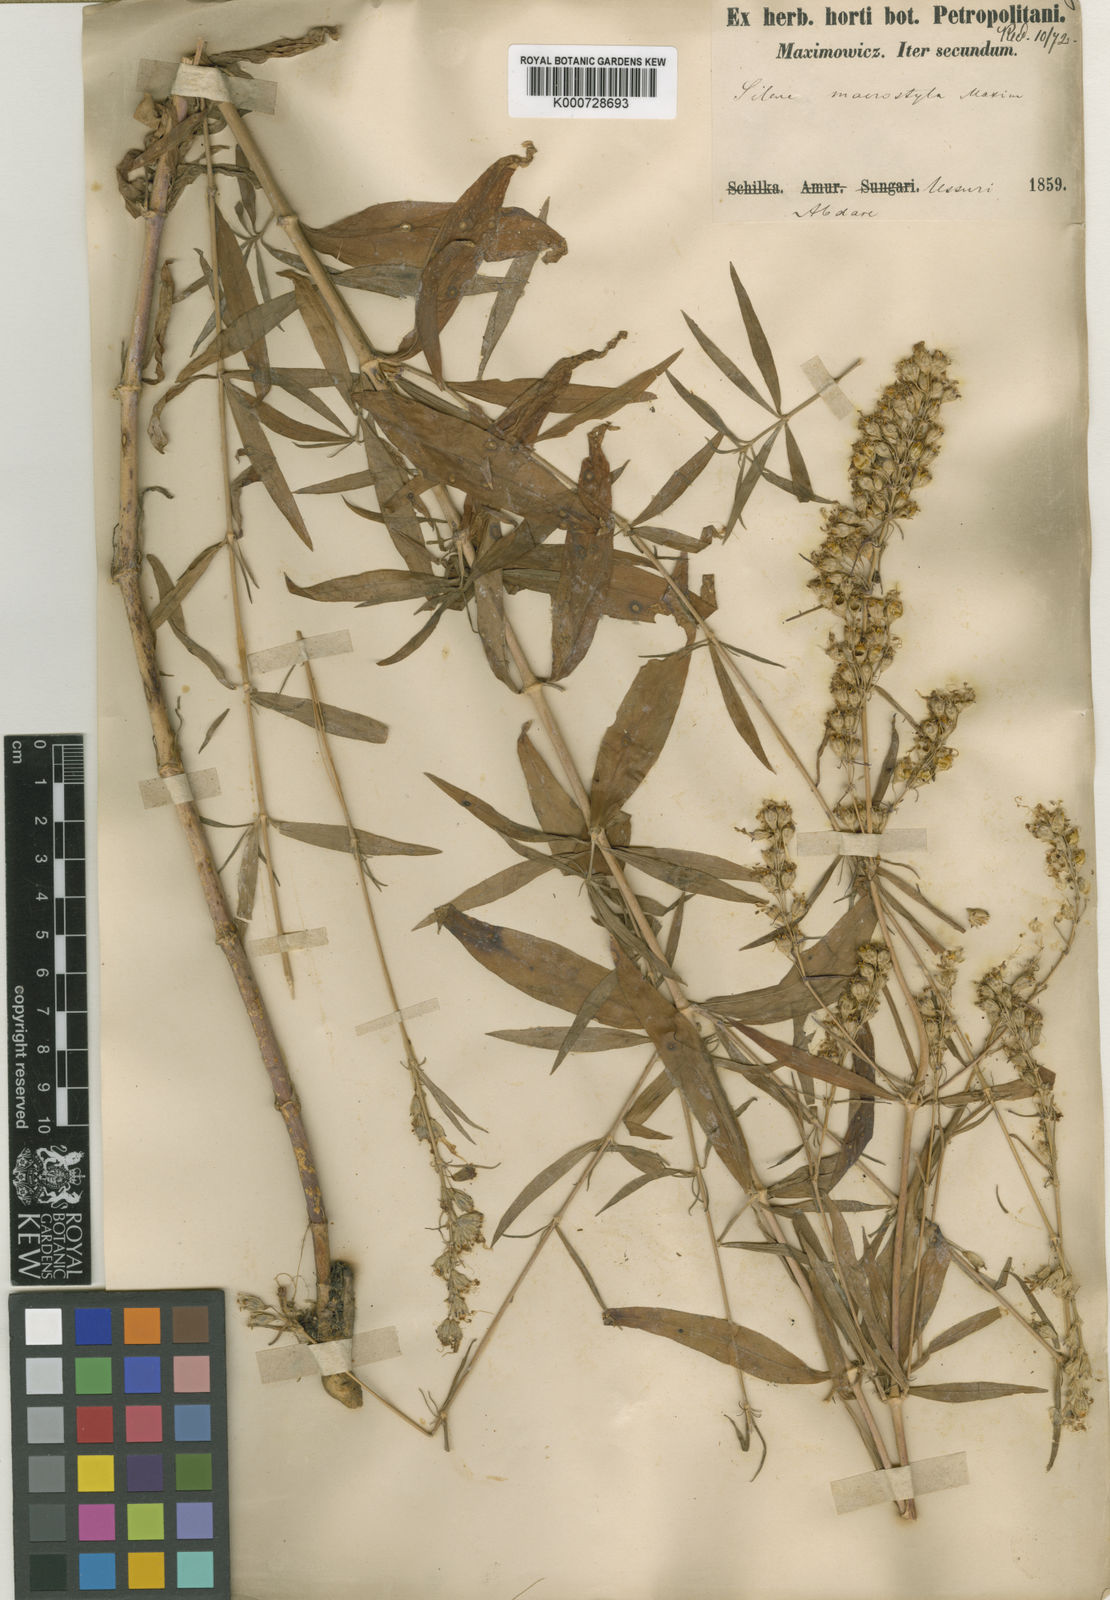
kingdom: Plantae
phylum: Tracheophyta
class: Magnoliopsida
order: Caryophyllales
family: Caryophyllaceae
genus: Silene
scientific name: Silene macrostyla
